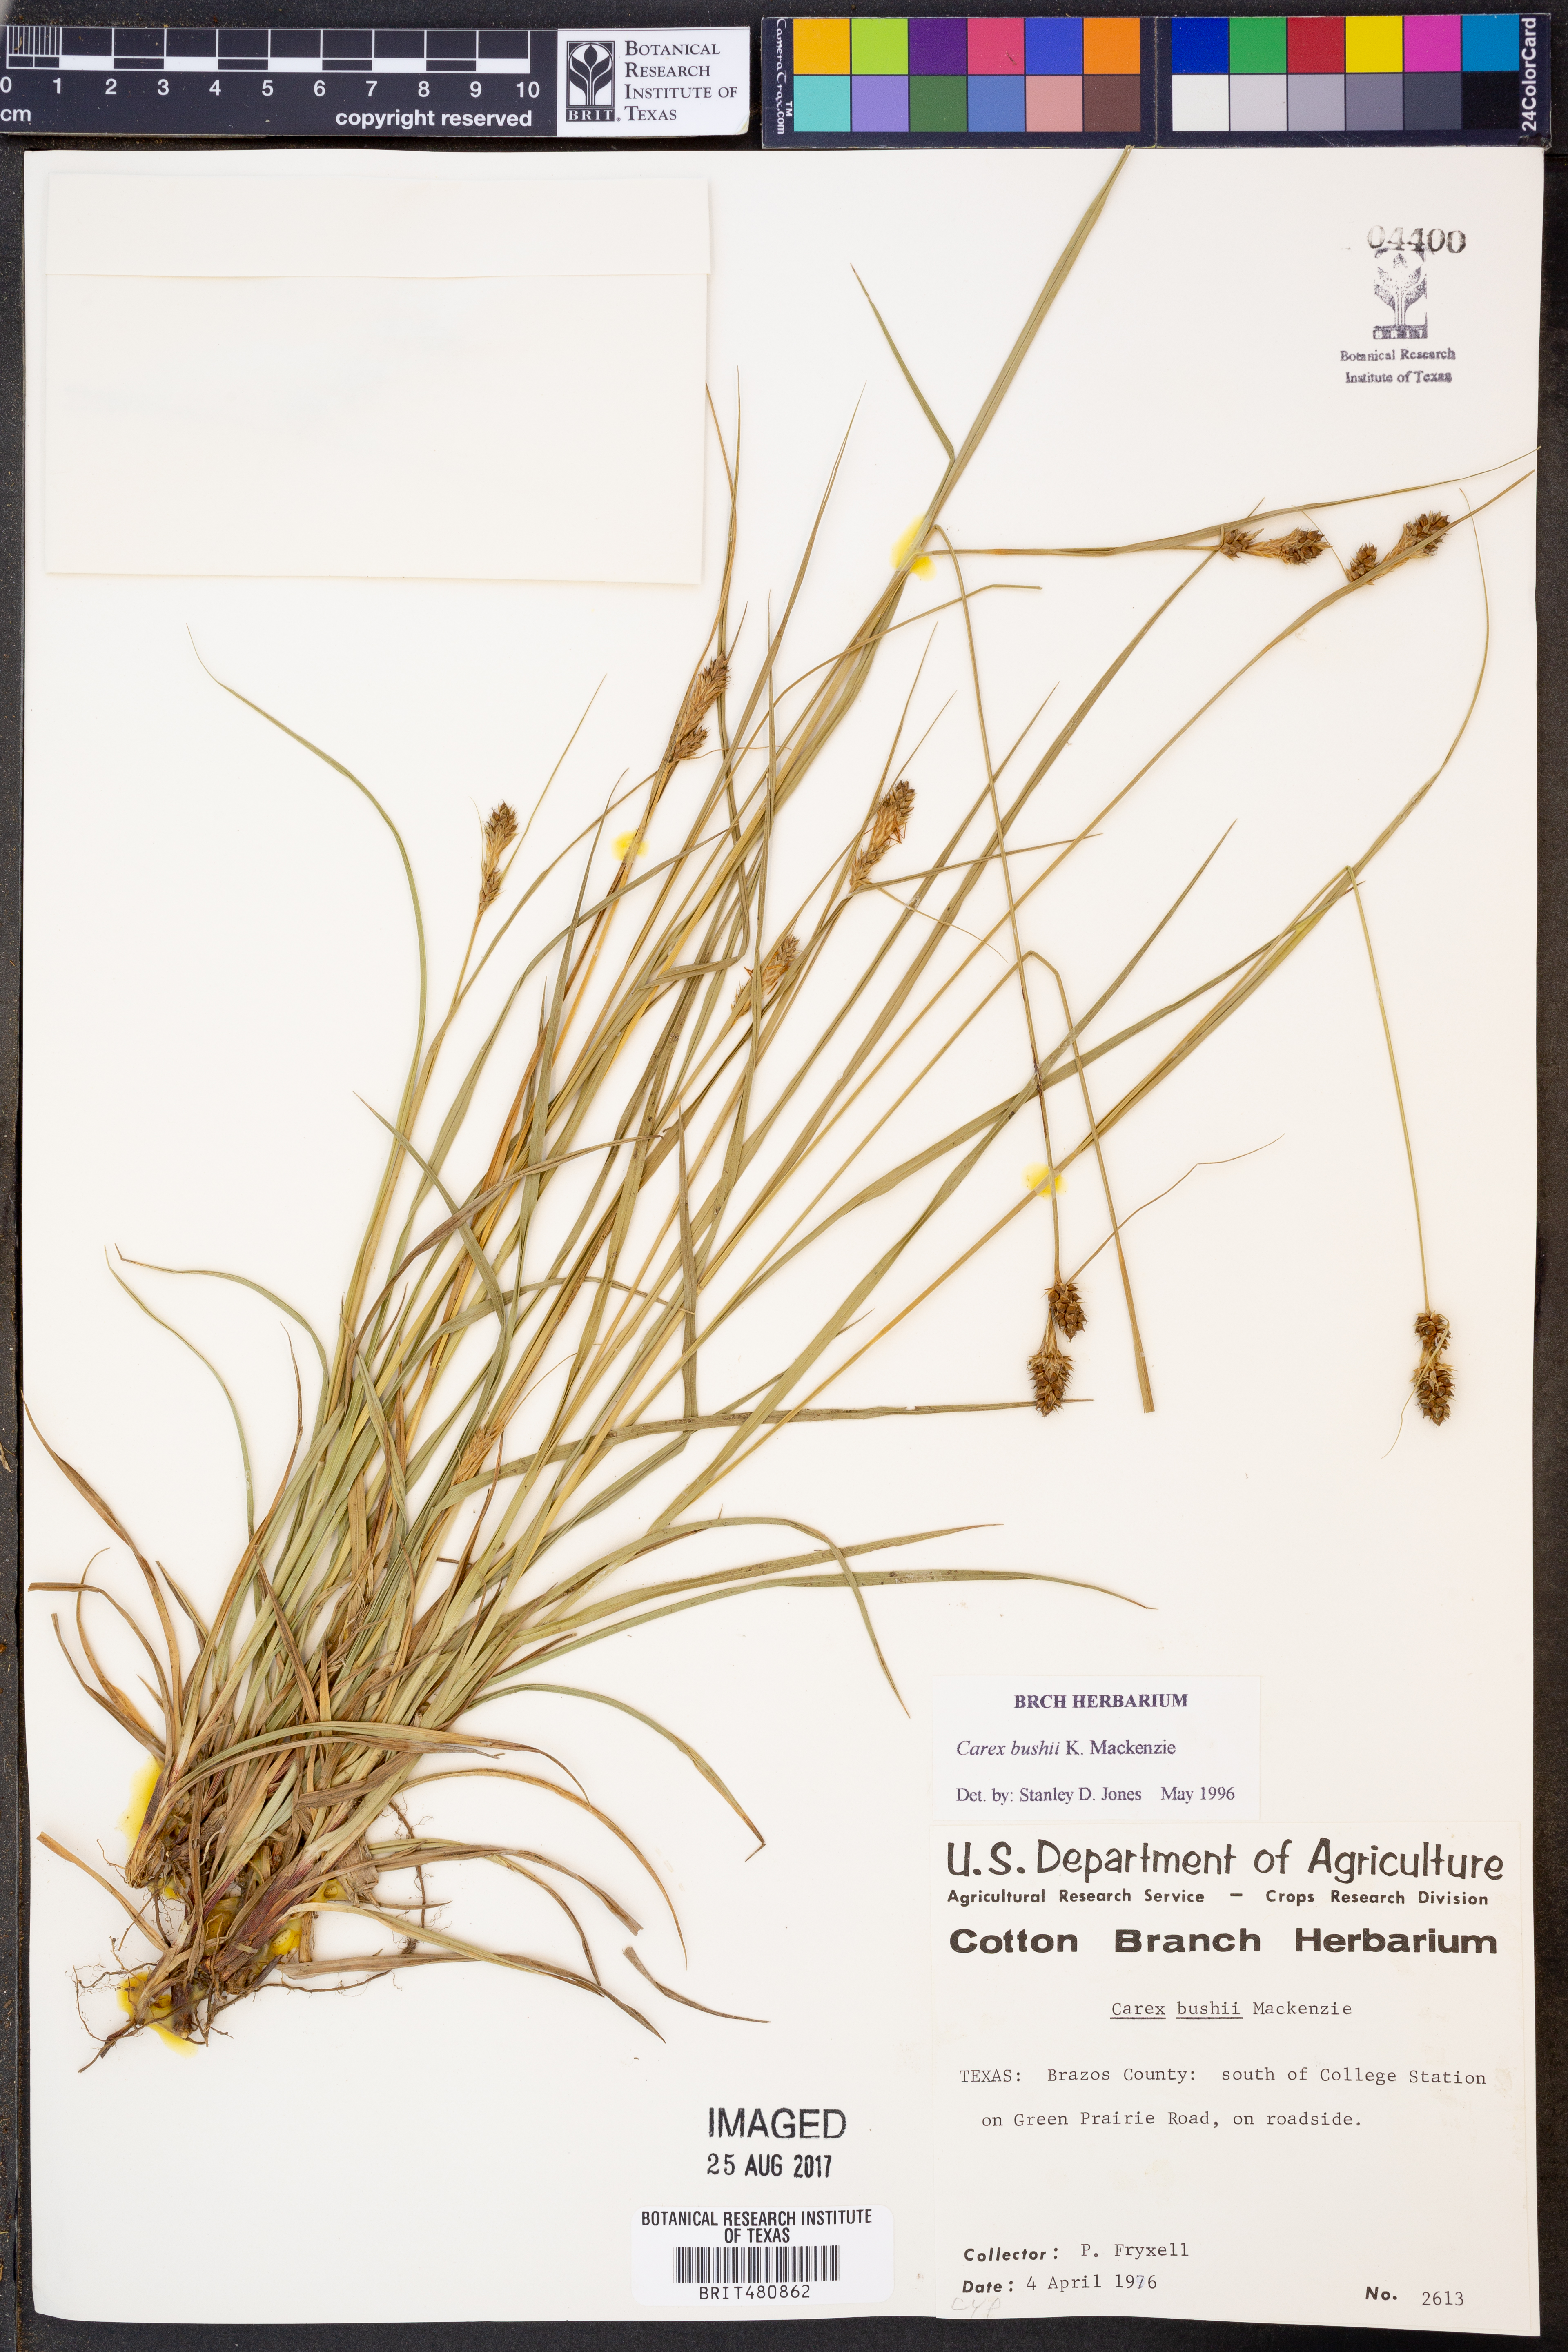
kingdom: Plantae
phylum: Tracheophyta
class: Liliopsida
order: Poales
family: Cyperaceae
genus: Carex
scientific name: Carex bushii
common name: Bush's sedge
